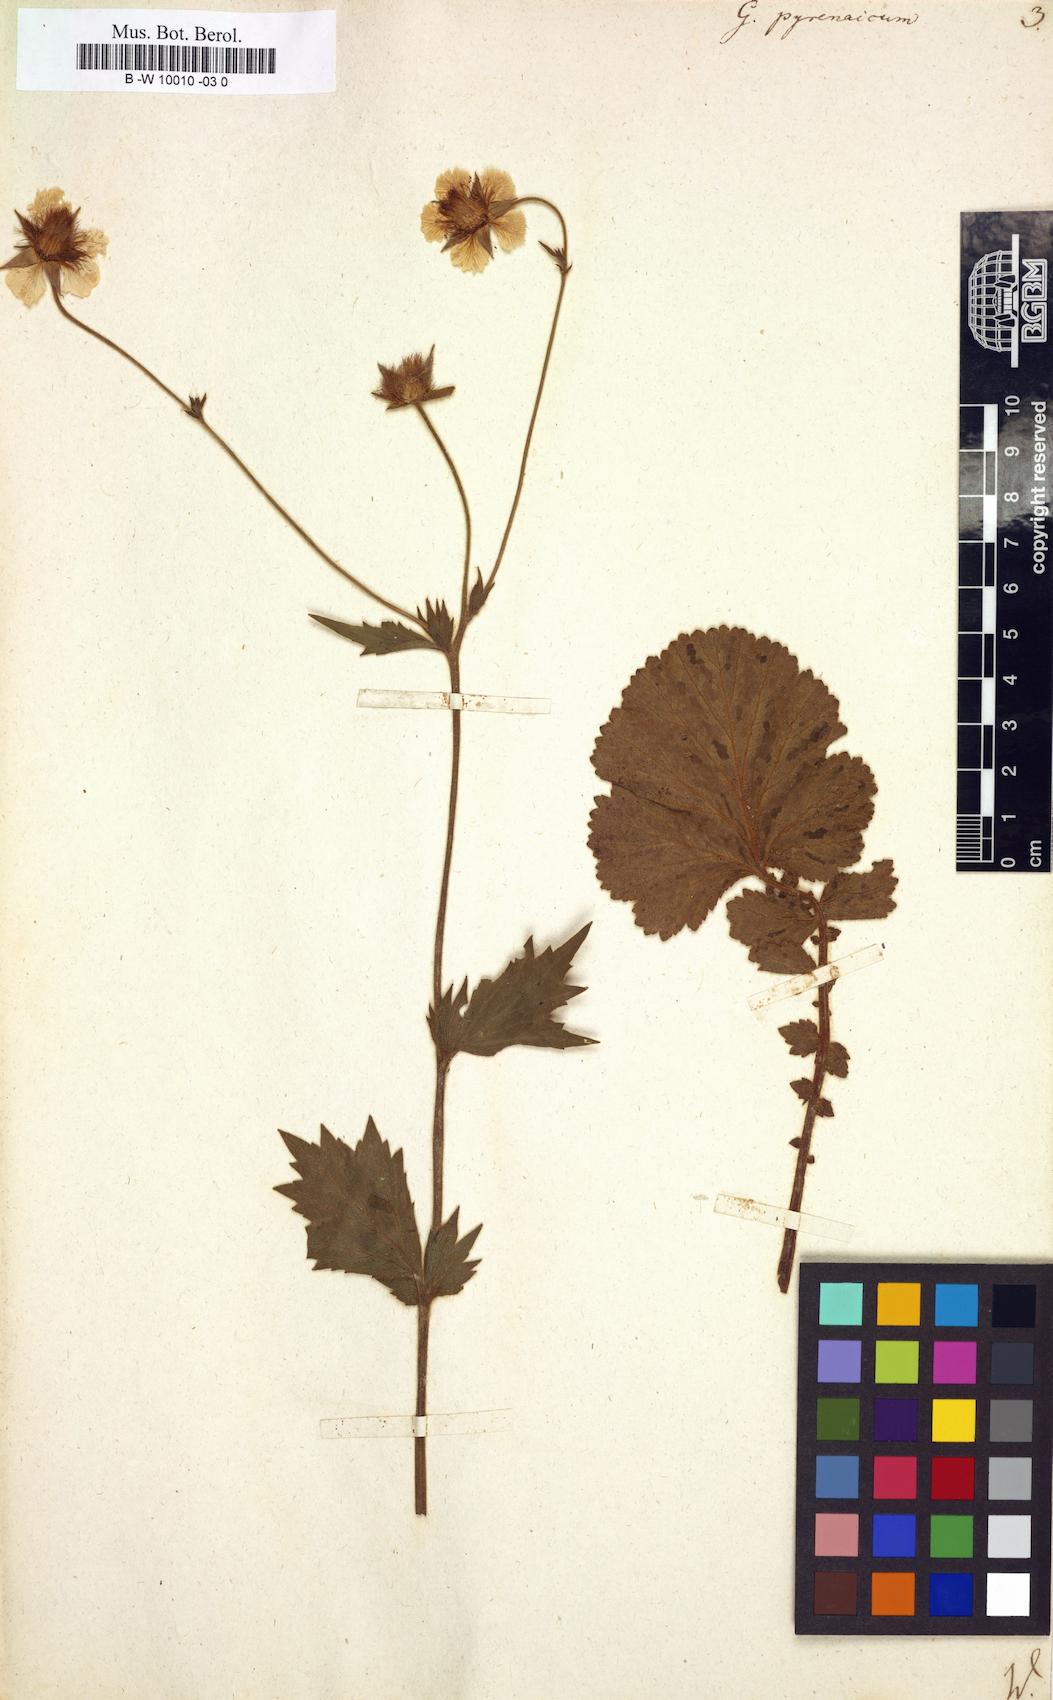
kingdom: Plantae
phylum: Tracheophyta
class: Magnoliopsida
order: Rosales
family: Rosaceae
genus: Geum
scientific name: Geum pyrenaicum
